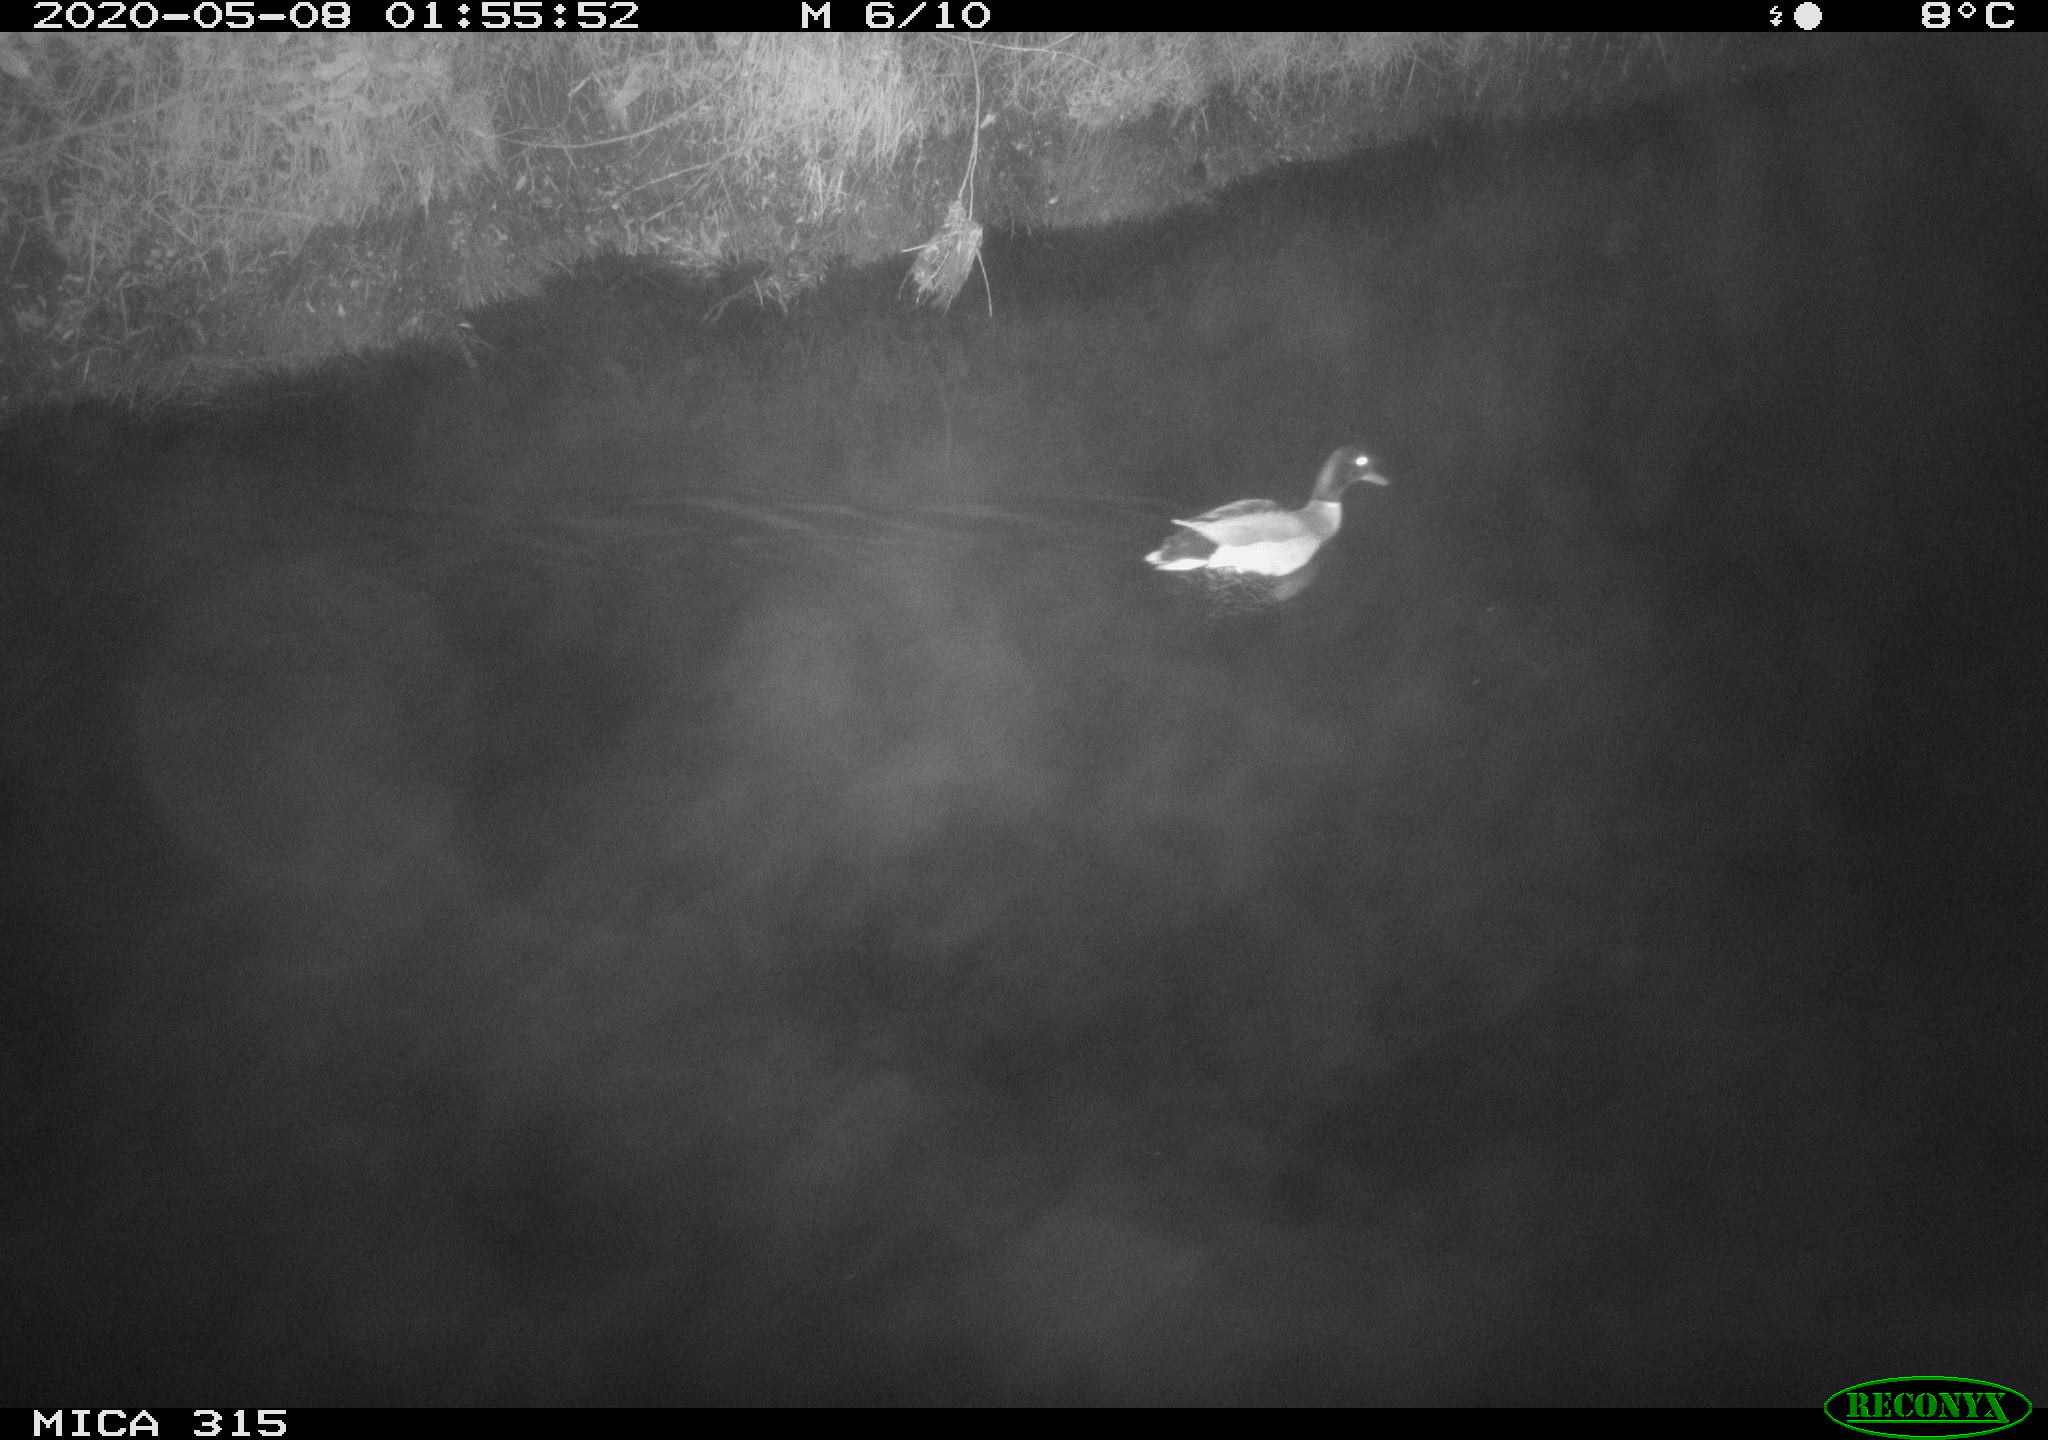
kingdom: Animalia
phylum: Chordata
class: Aves
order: Anseriformes
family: Anatidae
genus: Anas
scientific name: Anas platyrhynchos
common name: Mallard
